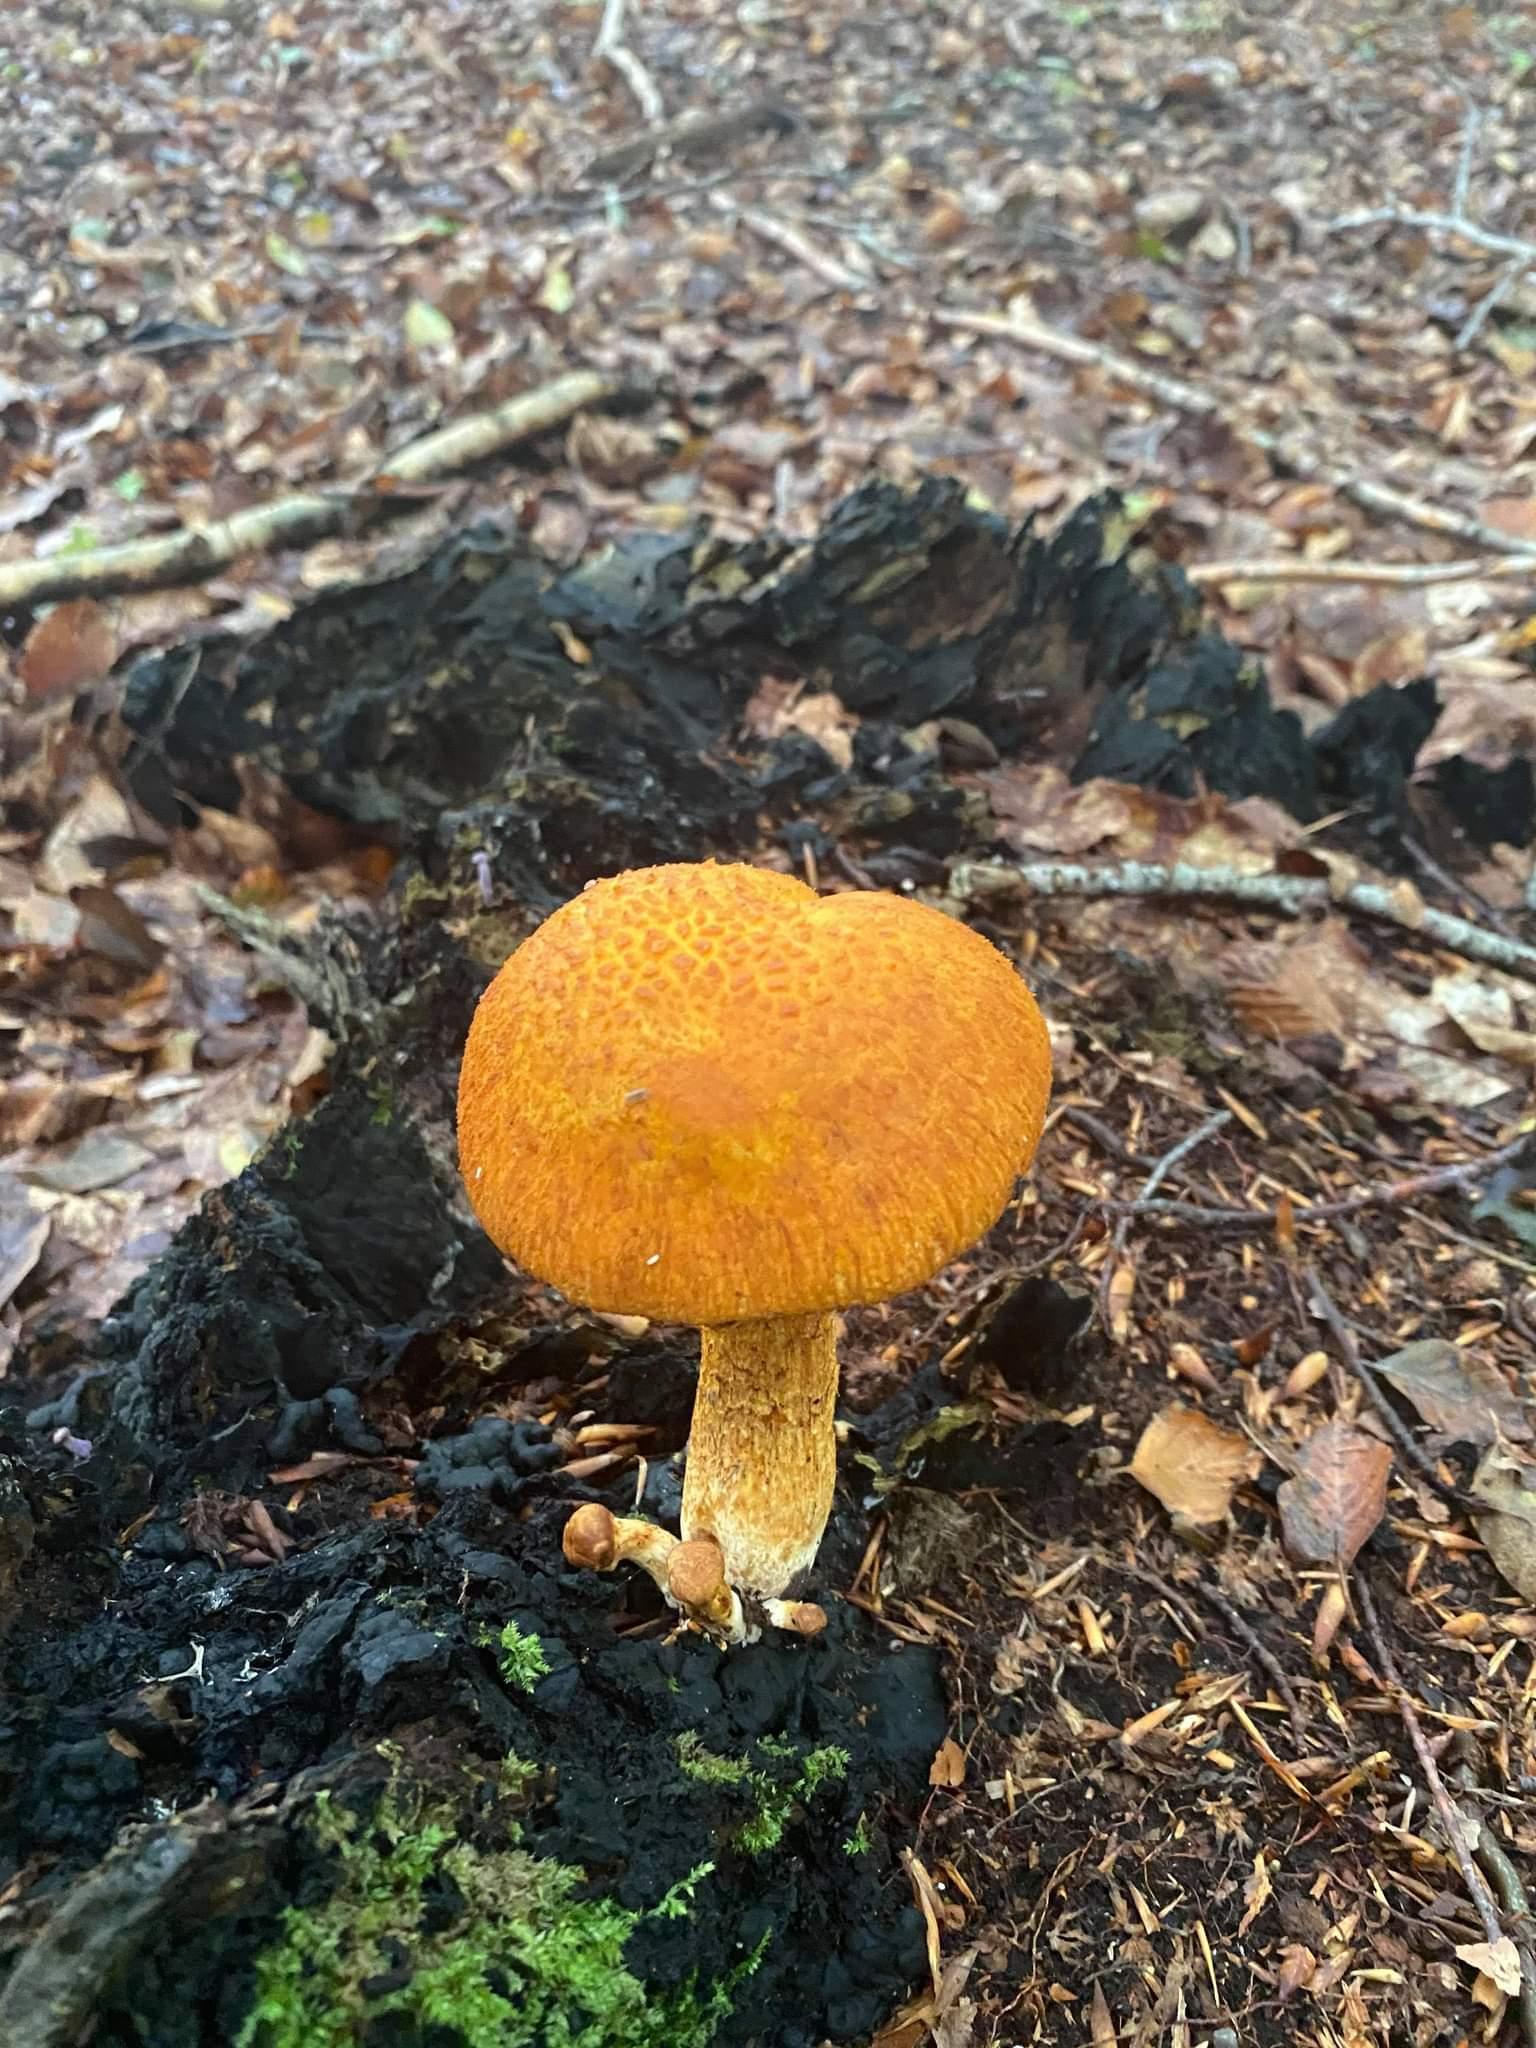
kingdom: Fungi
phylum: Basidiomycota
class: Agaricomycetes
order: Agaricales
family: Hymenogastraceae
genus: Gymnopilus
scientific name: Gymnopilus spectabilis
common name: fibret flammehat
